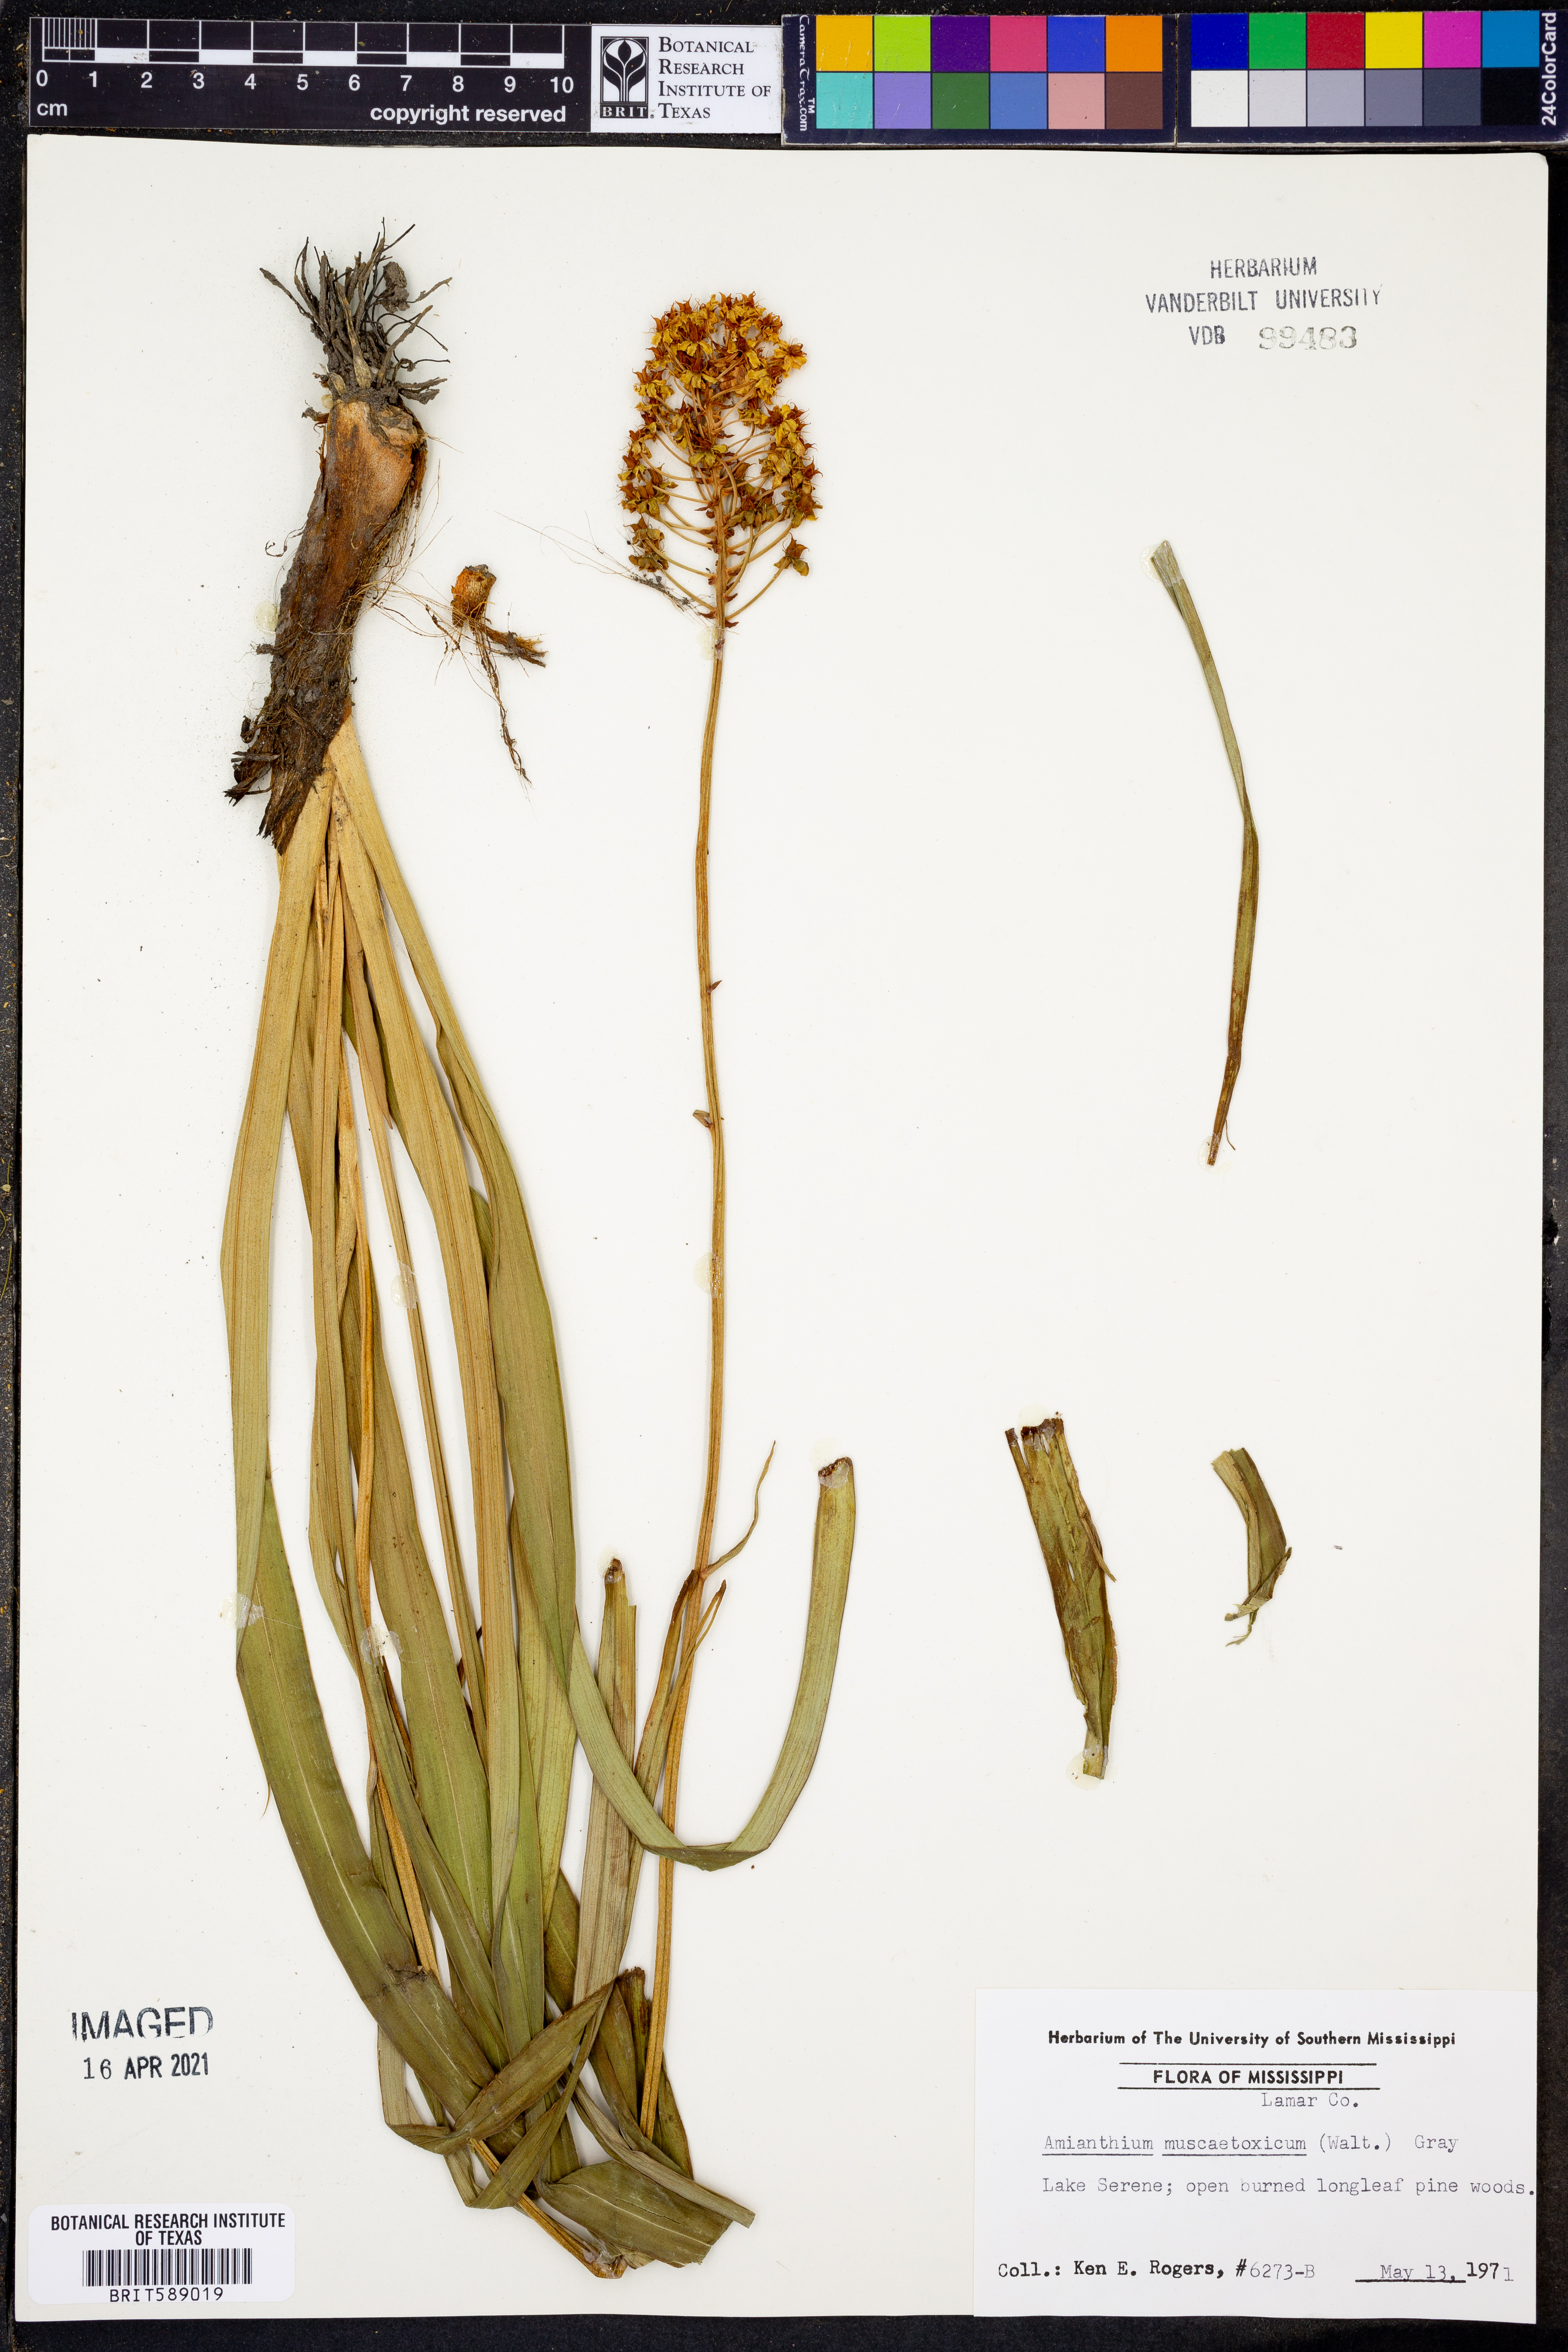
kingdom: Plantae
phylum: Tracheophyta
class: Liliopsida
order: Liliales
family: Melanthiaceae
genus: Amianthium
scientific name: Amianthium muscitoxicum
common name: Fly-poison
